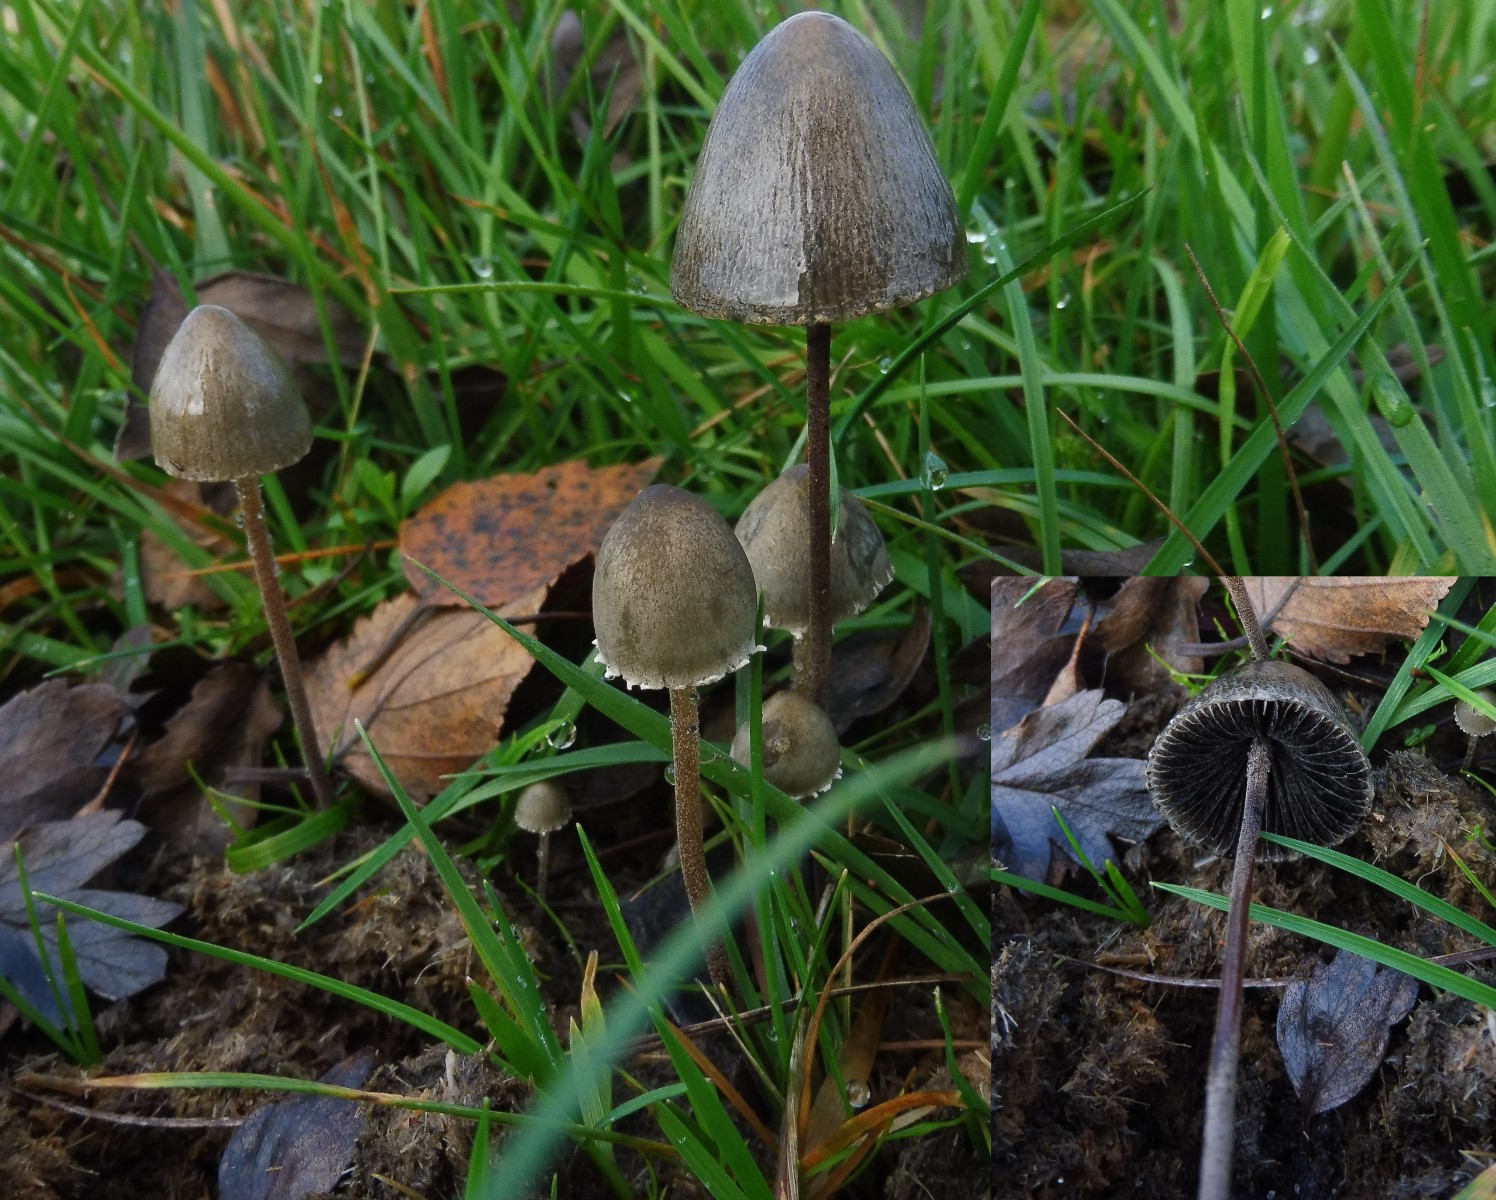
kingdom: Fungi
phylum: Basidiomycota
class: Agaricomycetes
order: Agaricales
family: Bolbitiaceae
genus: Panaeolus
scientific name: Panaeolus papilionaceus
